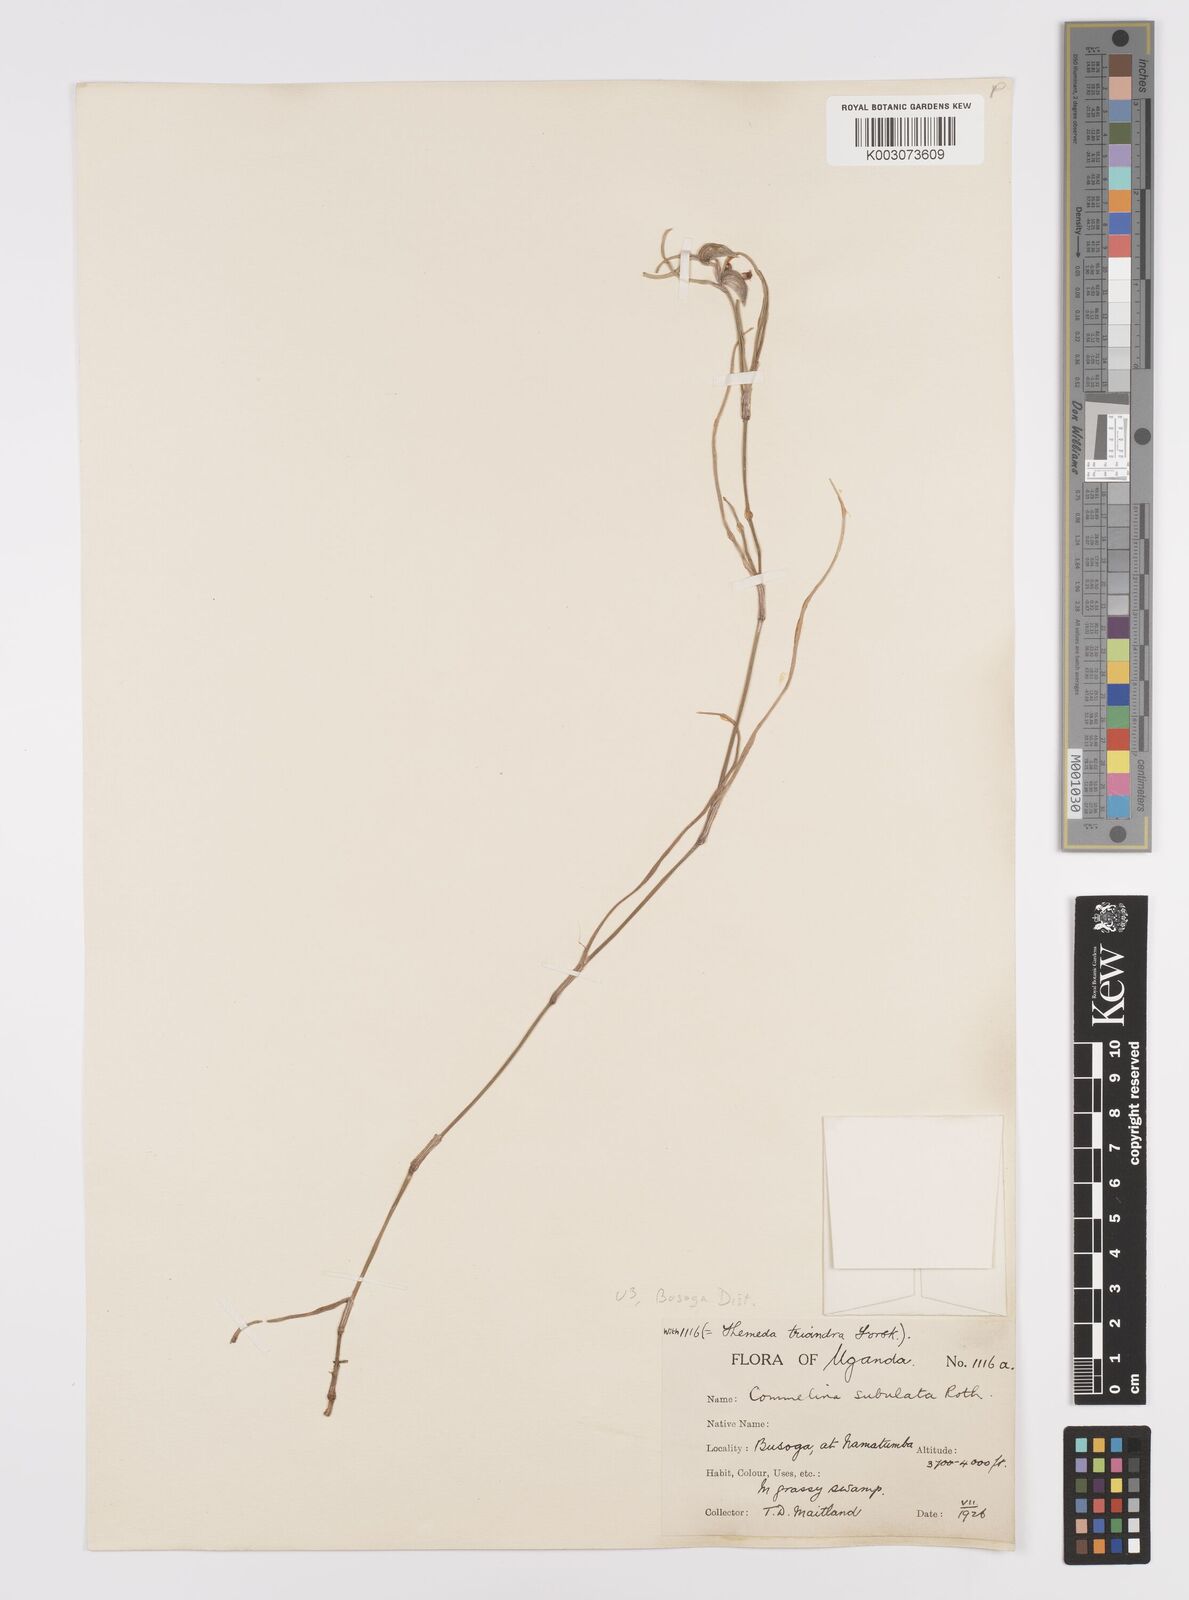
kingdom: Plantae
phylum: Tracheophyta
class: Liliopsida
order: Commelinales
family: Commelinaceae
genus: Commelina
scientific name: Commelina purpurea
